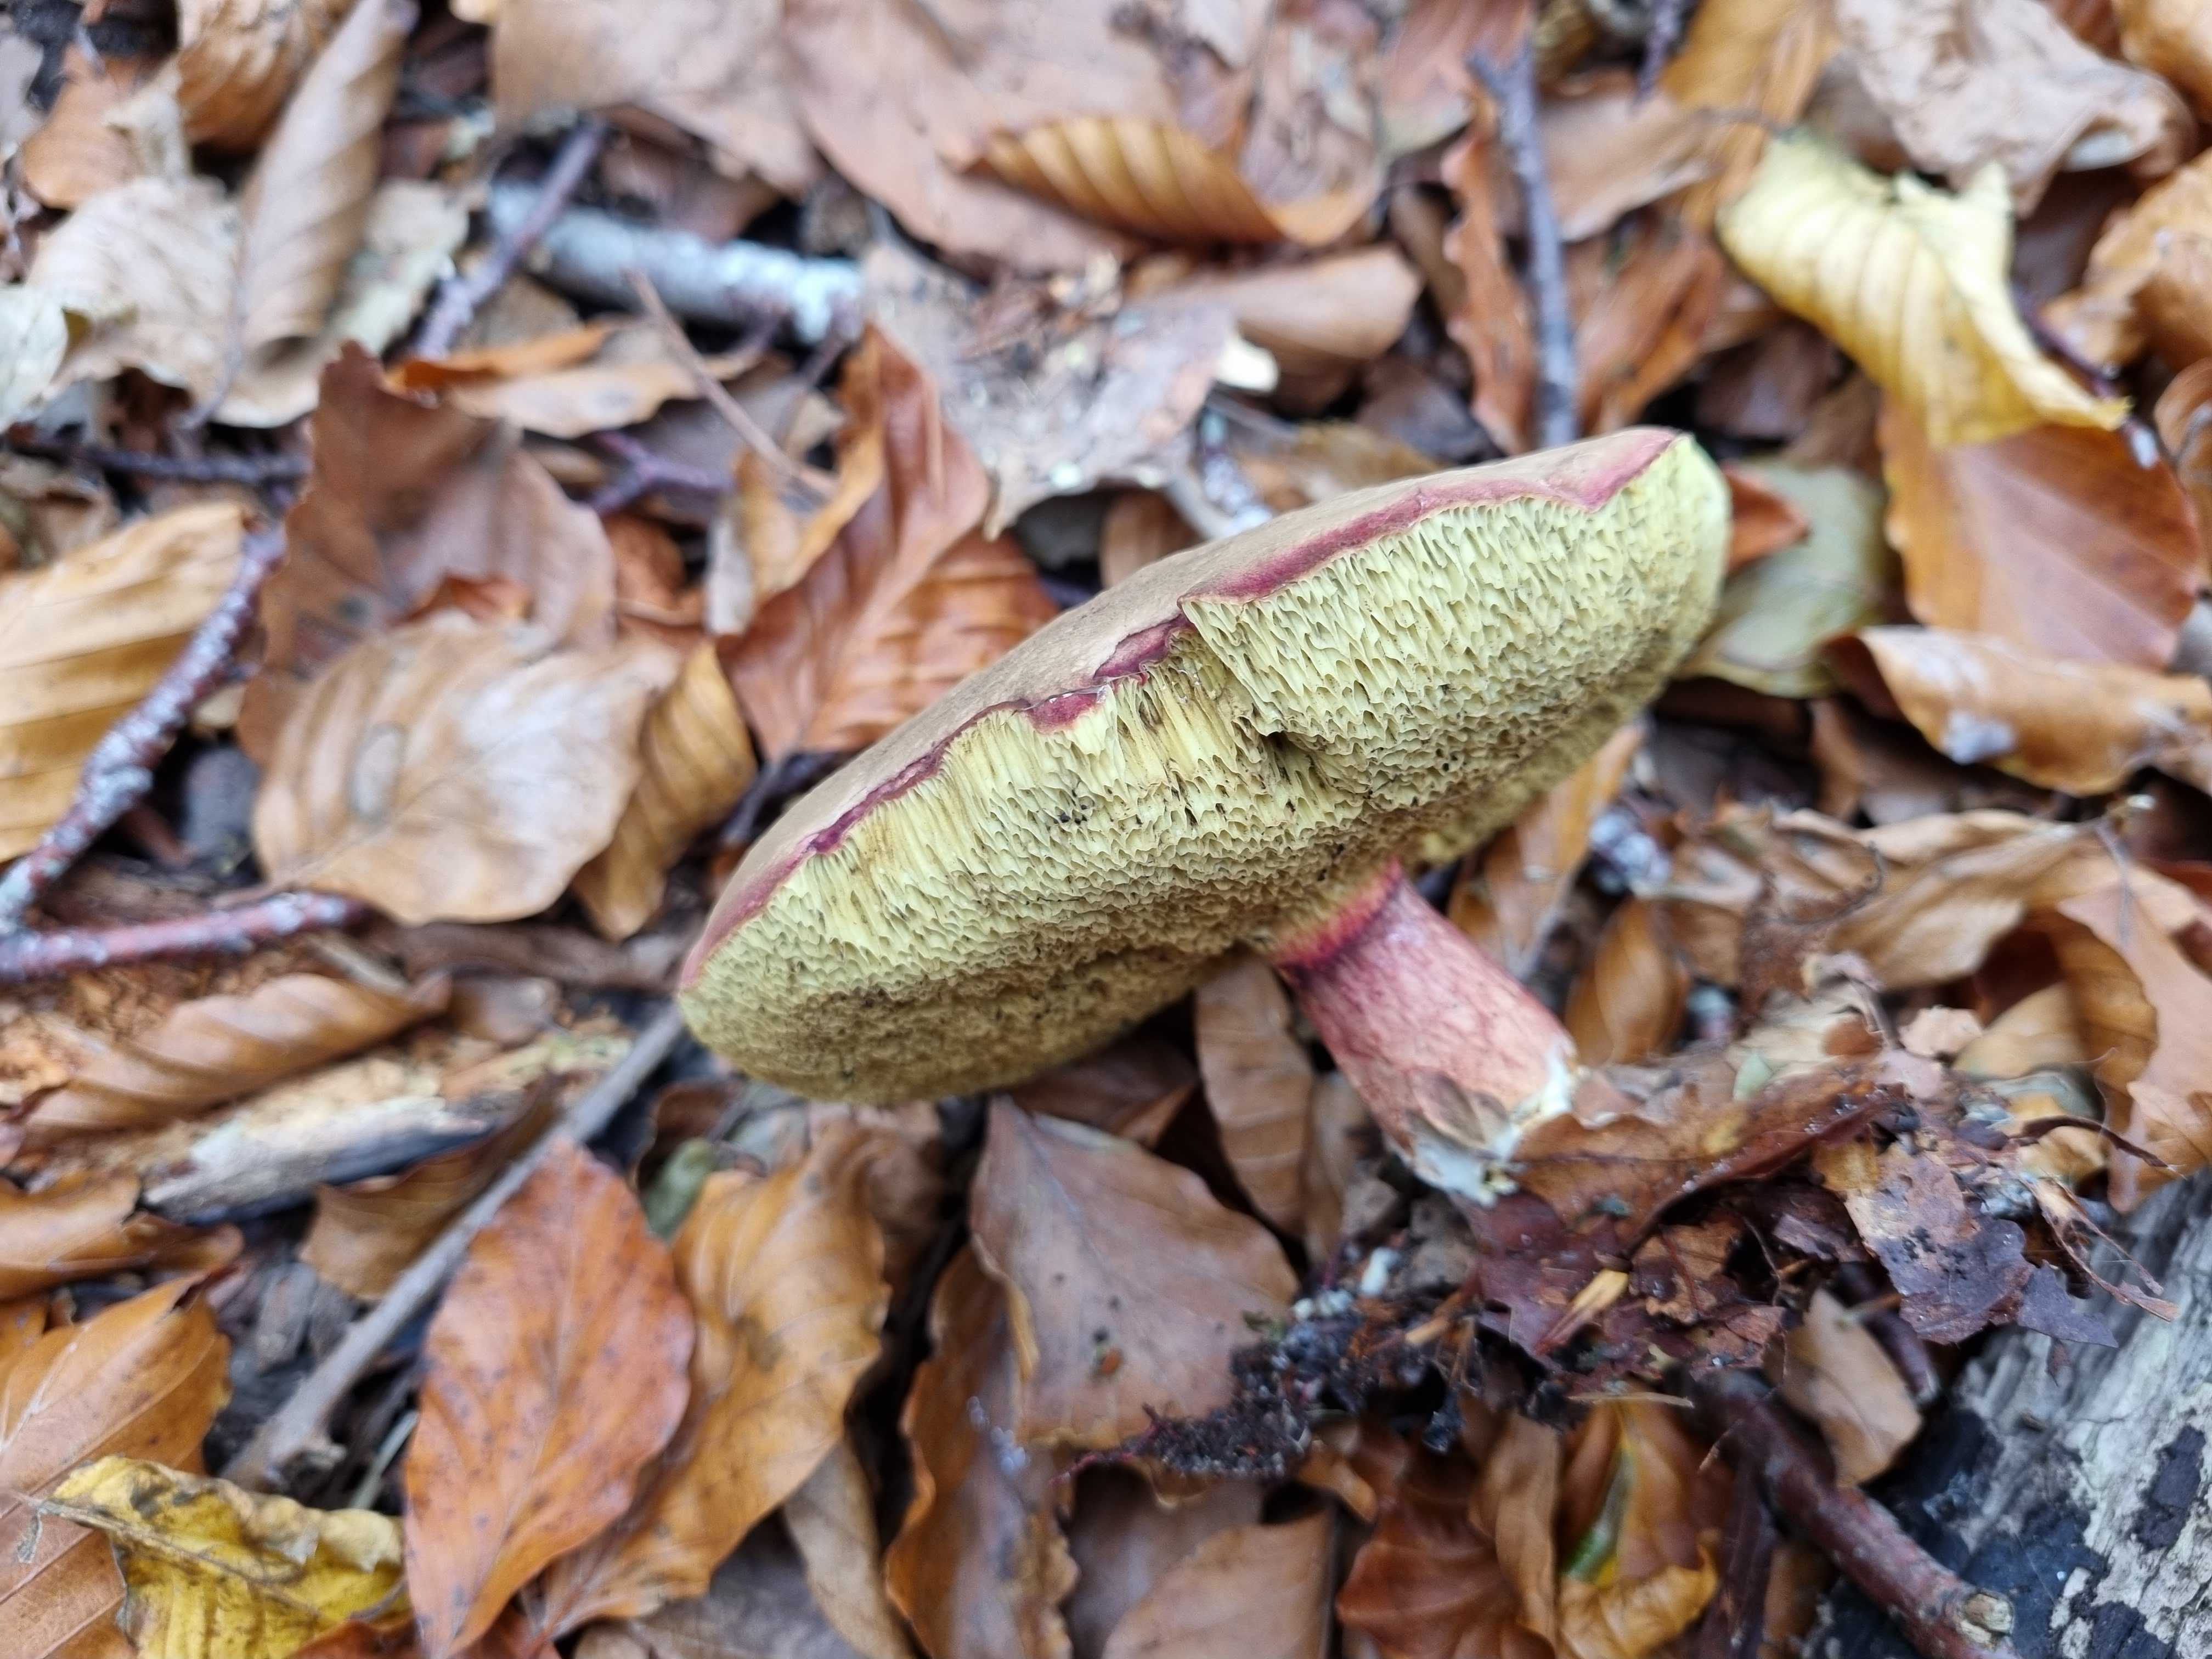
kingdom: Fungi
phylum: Basidiomycota
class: Agaricomycetes
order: Boletales
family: Boletaceae
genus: Xerocomellus
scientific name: Xerocomellus pruinatus
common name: dugget rørhat
